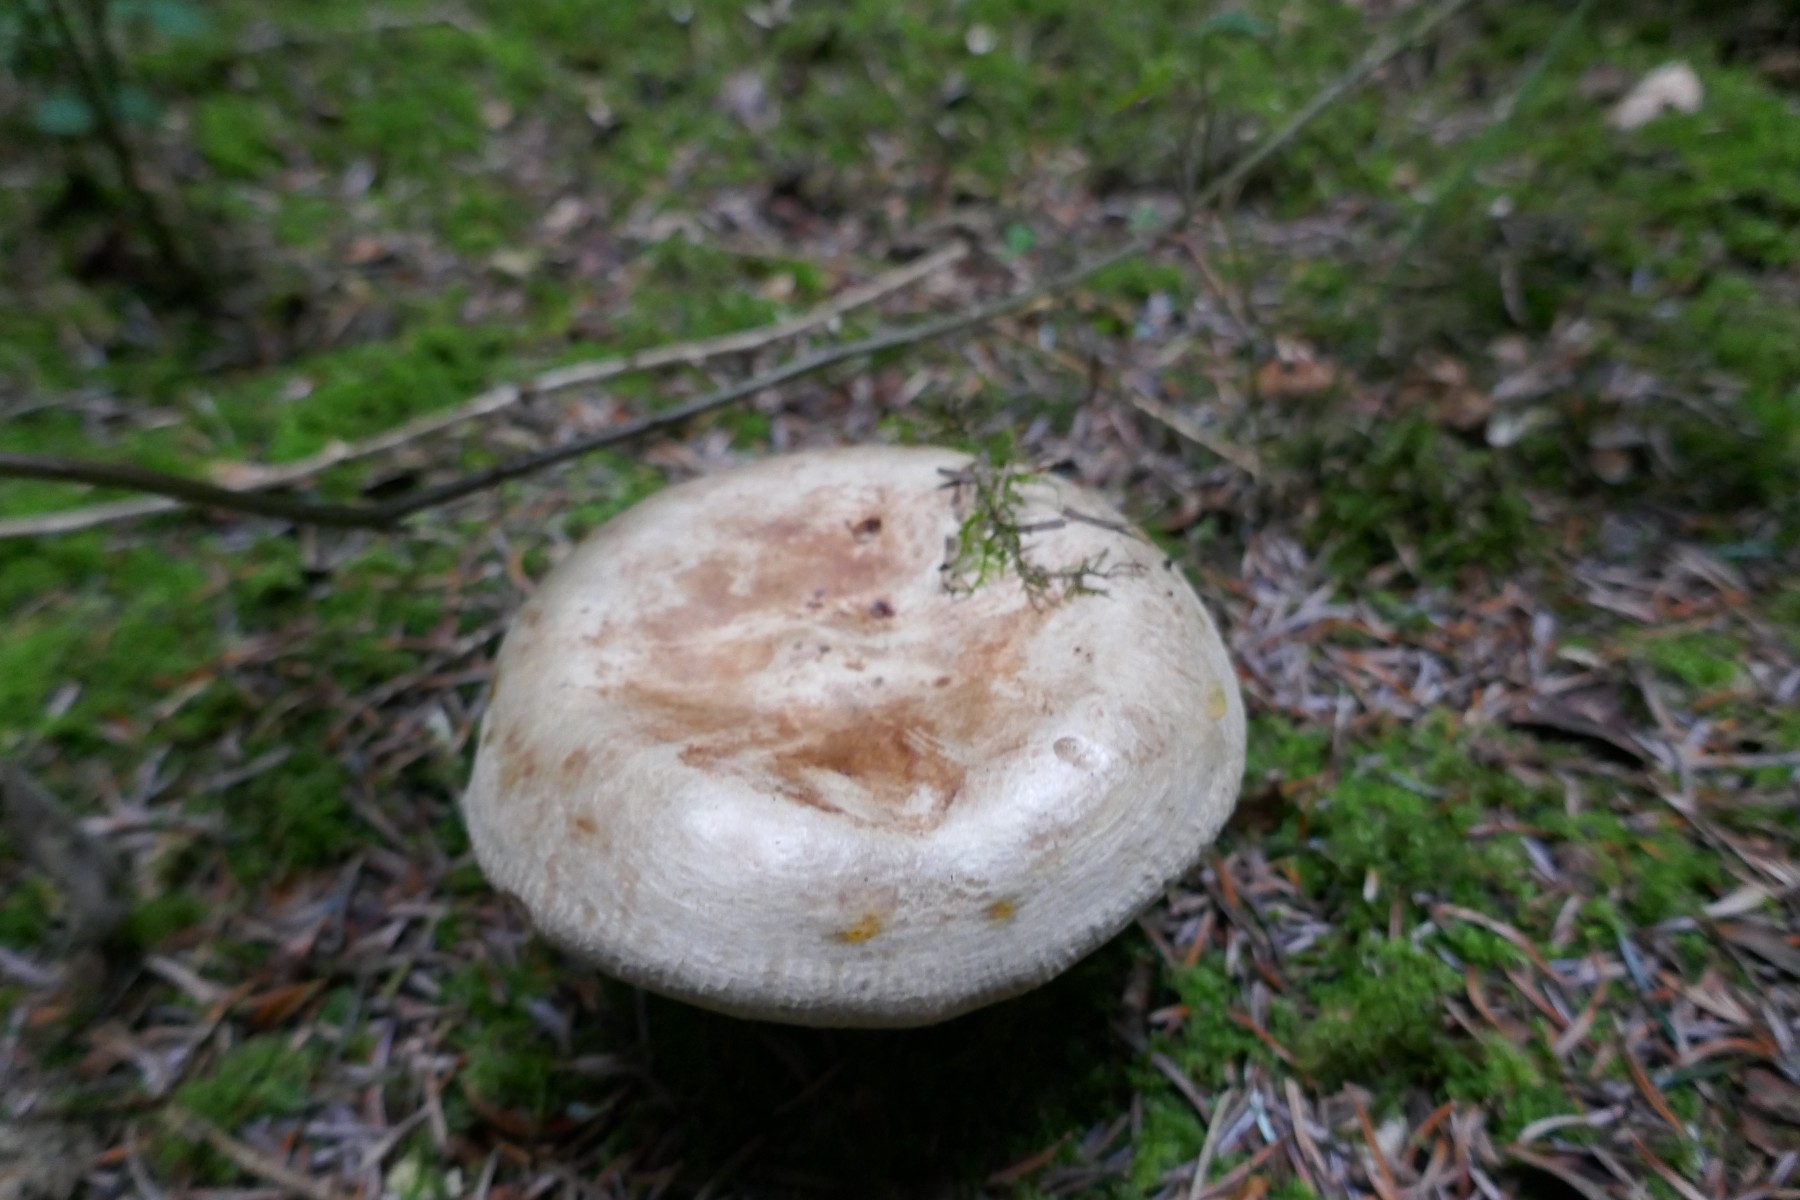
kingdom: Fungi
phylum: Basidiomycota
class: Agaricomycetes
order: Boletales
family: Paxillaceae
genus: Paxillus
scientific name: Paxillus involutus
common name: almindelig netbladhat
